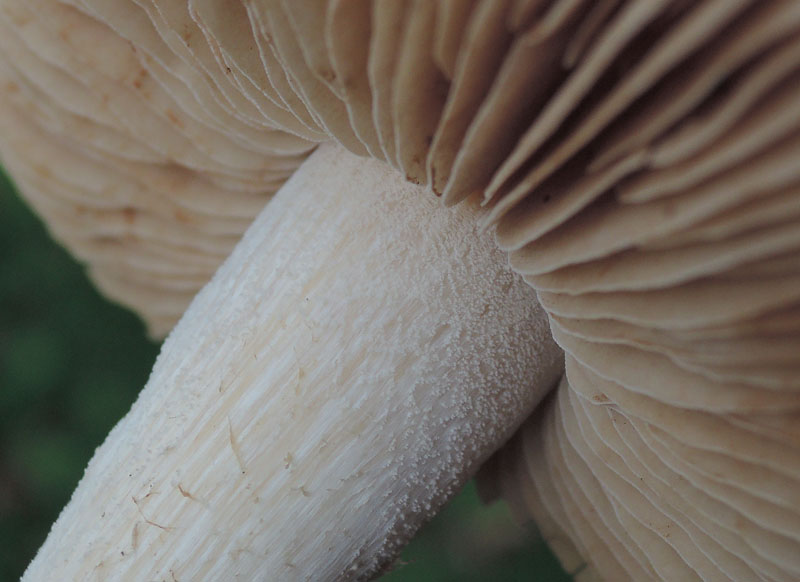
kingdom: Fungi
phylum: Basidiomycota
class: Agaricomycetes
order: Agaricales
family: Hymenogastraceae
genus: Hebeloma
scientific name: Hebeloma leucosarx
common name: højstokket tåreblad
